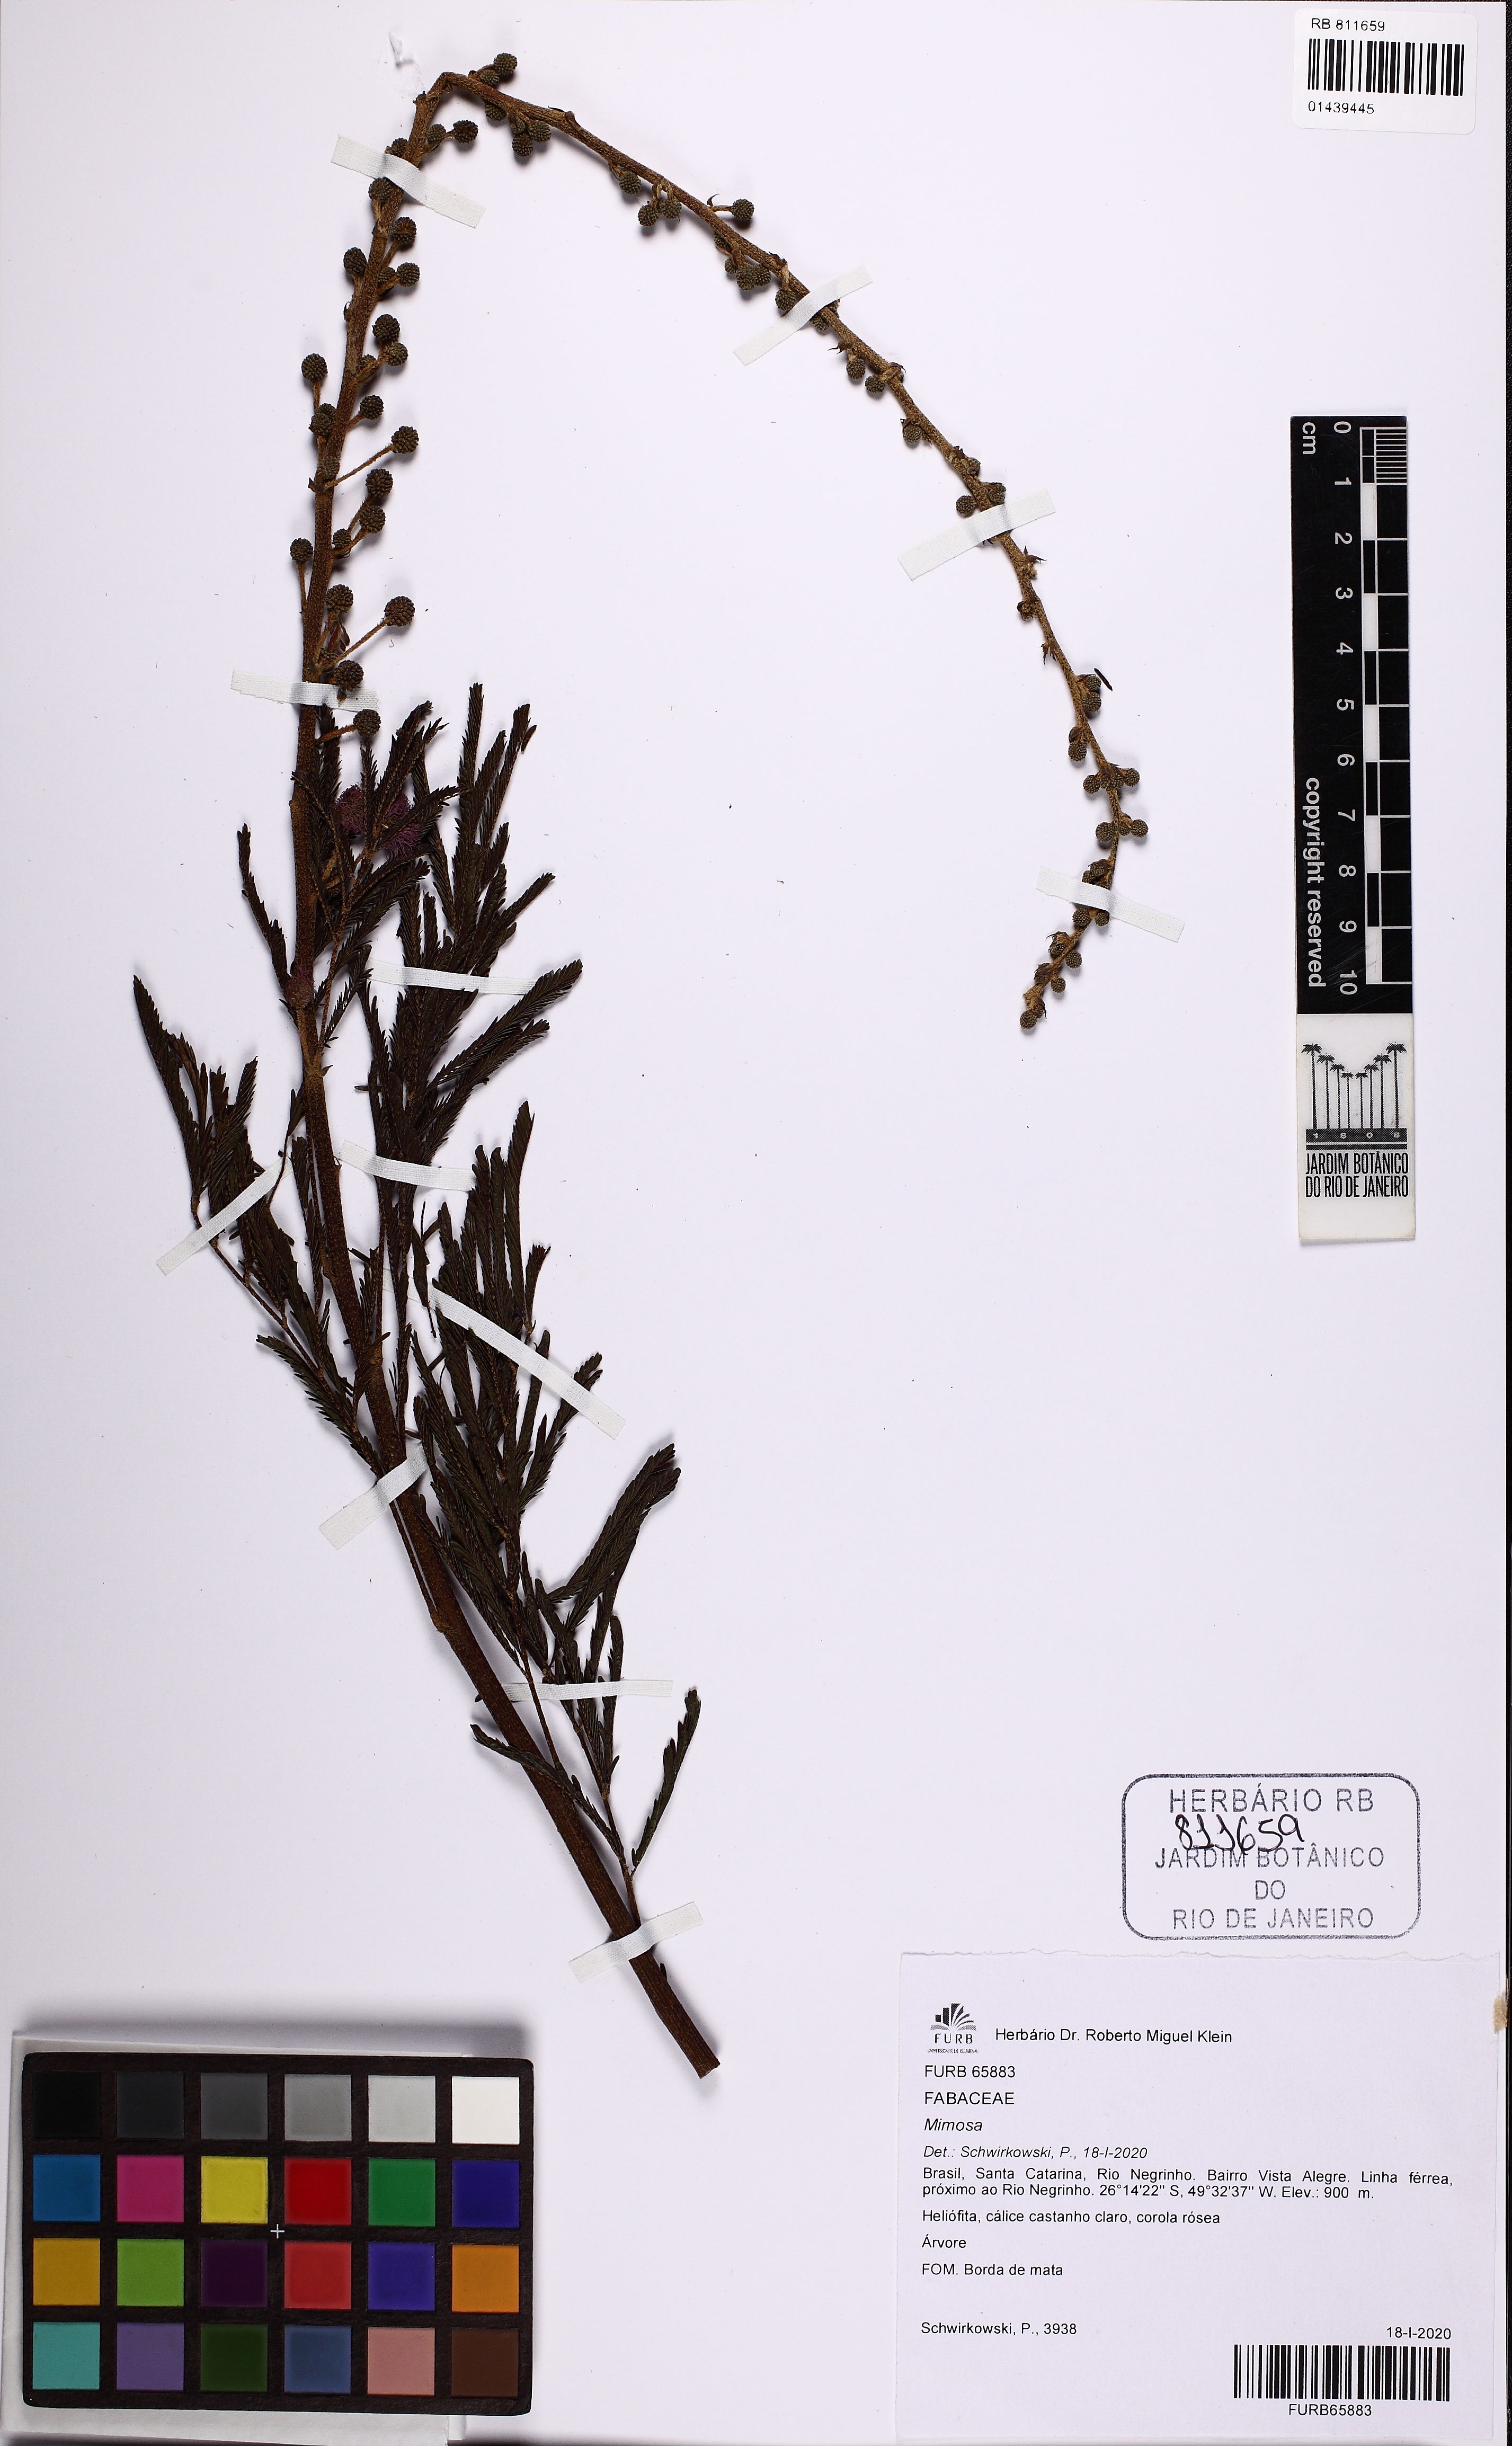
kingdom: Plantae
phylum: Tracheophyta
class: Magnoliopsida
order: Fabales
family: Fabaceae
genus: Mimosa
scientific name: Mimosa
